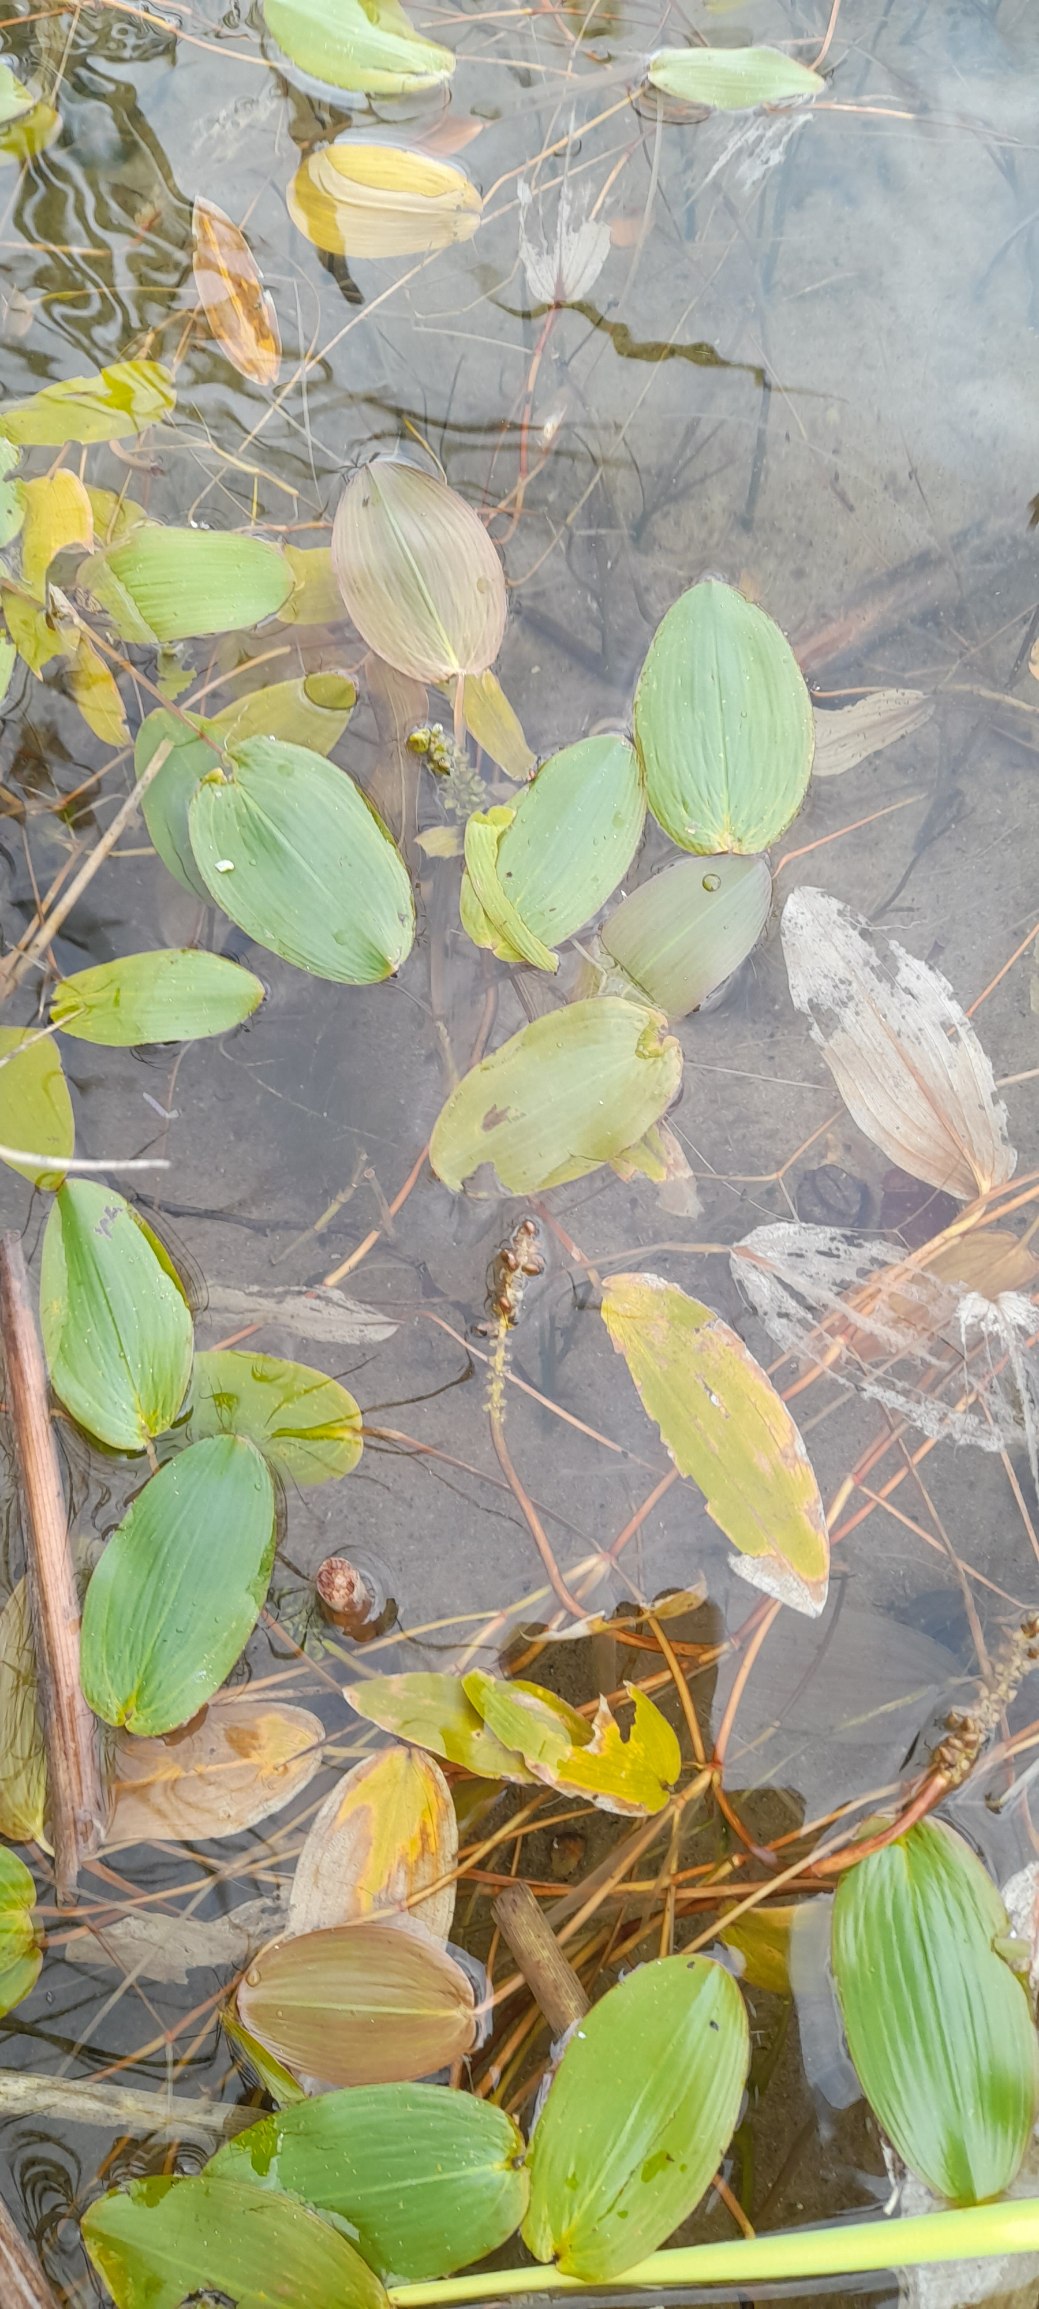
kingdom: Plantae
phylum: Tracheophyta
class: Liliopsida
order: Alismatales
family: Potamogetonaceae
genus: Potamogeton
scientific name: Potamogeton natans
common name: Svømmende vandaks
